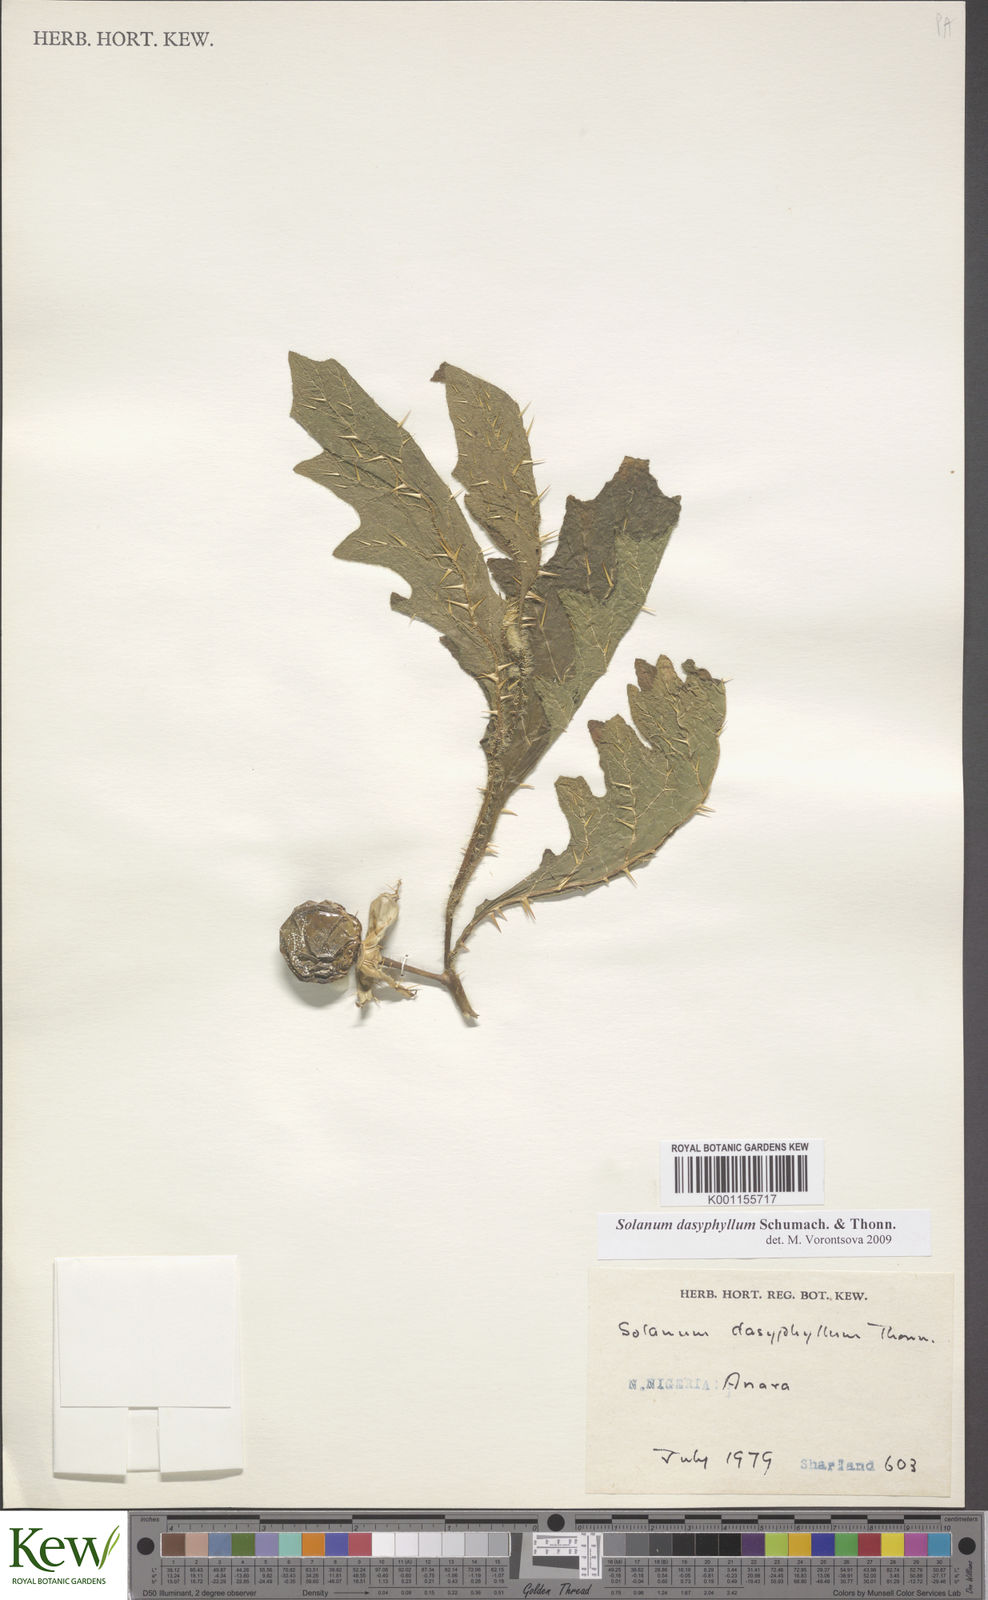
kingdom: Plantae
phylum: Tracheophyta
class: Magnoliopsida
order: Solanales
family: Solanaceae
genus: Solanum
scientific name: Solanum dasyphyllum
